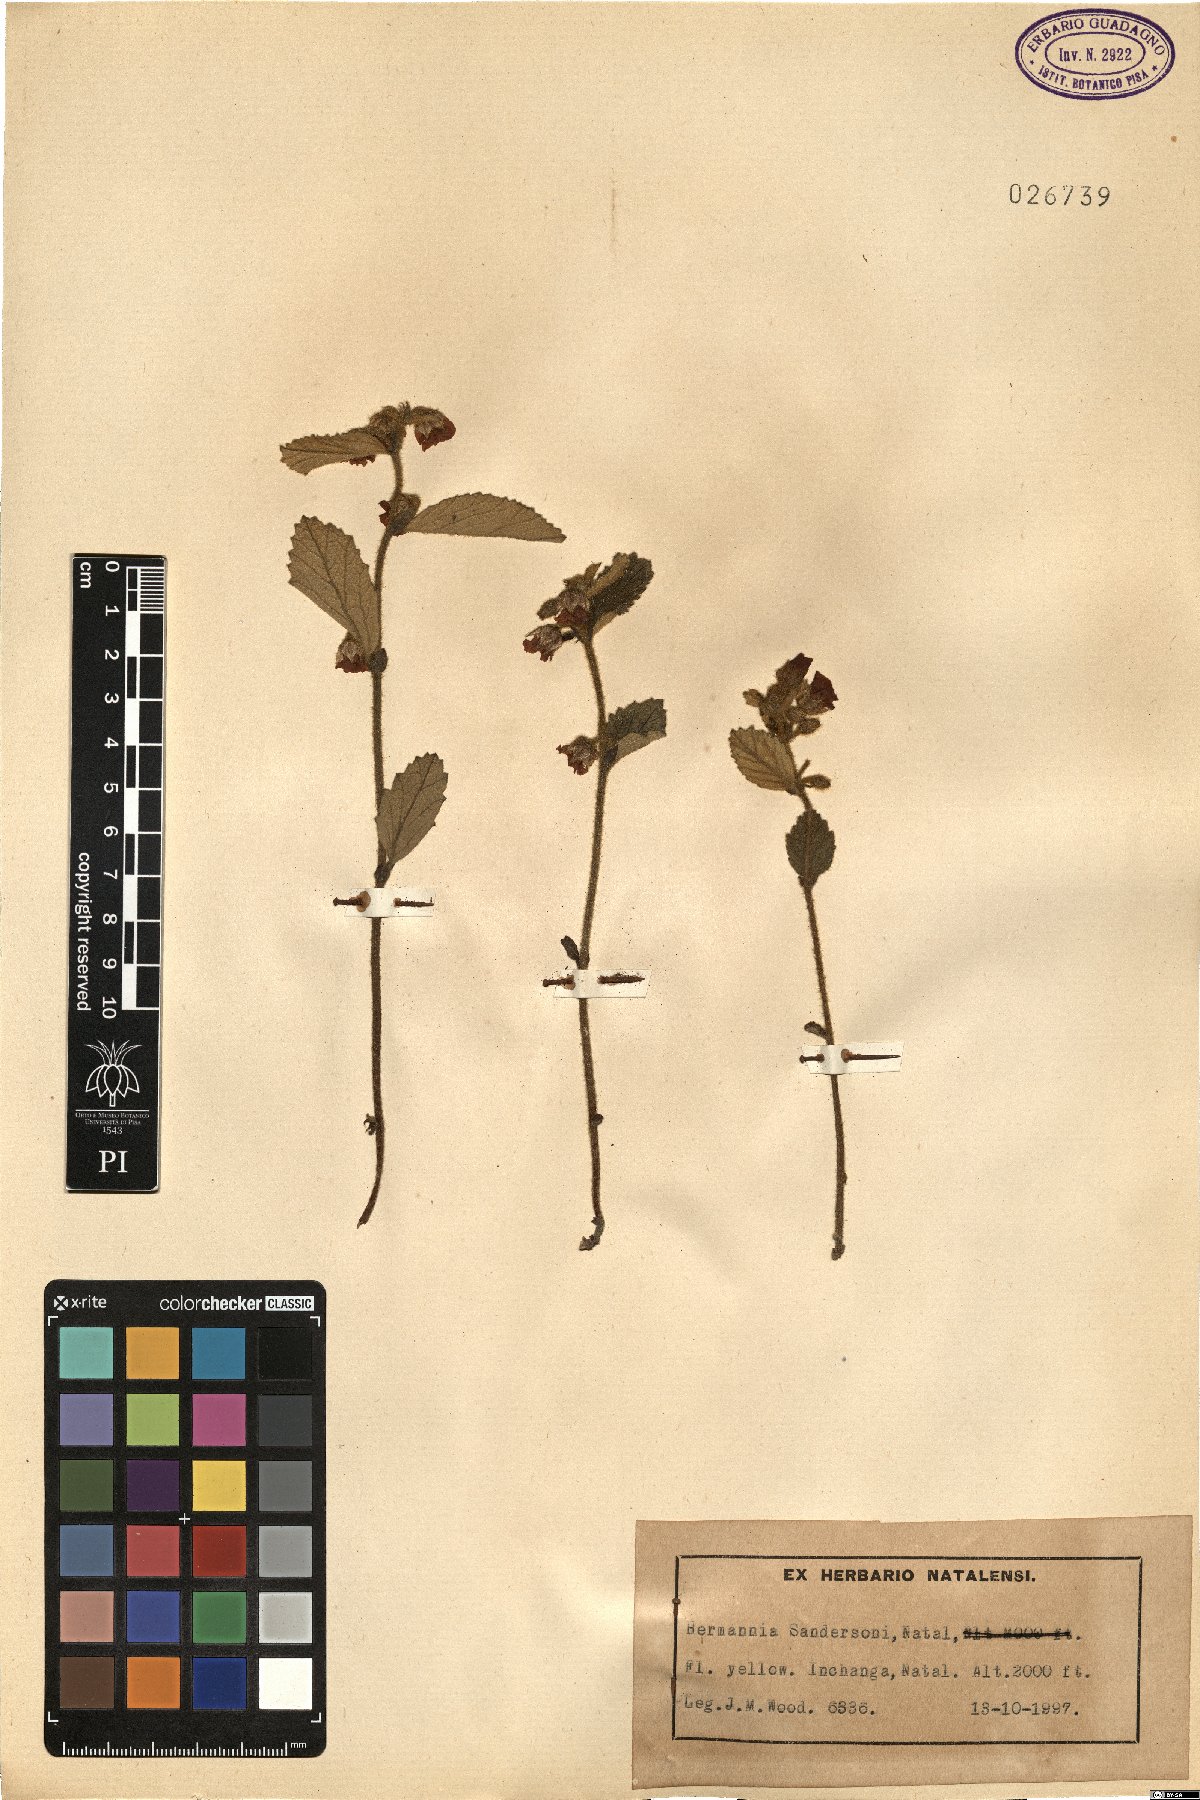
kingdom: Plantae
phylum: Tracheophyta
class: Magnoliopsida
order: Malvales
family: Malvaceae
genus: Hermannia
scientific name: Hermannia sandersonii
